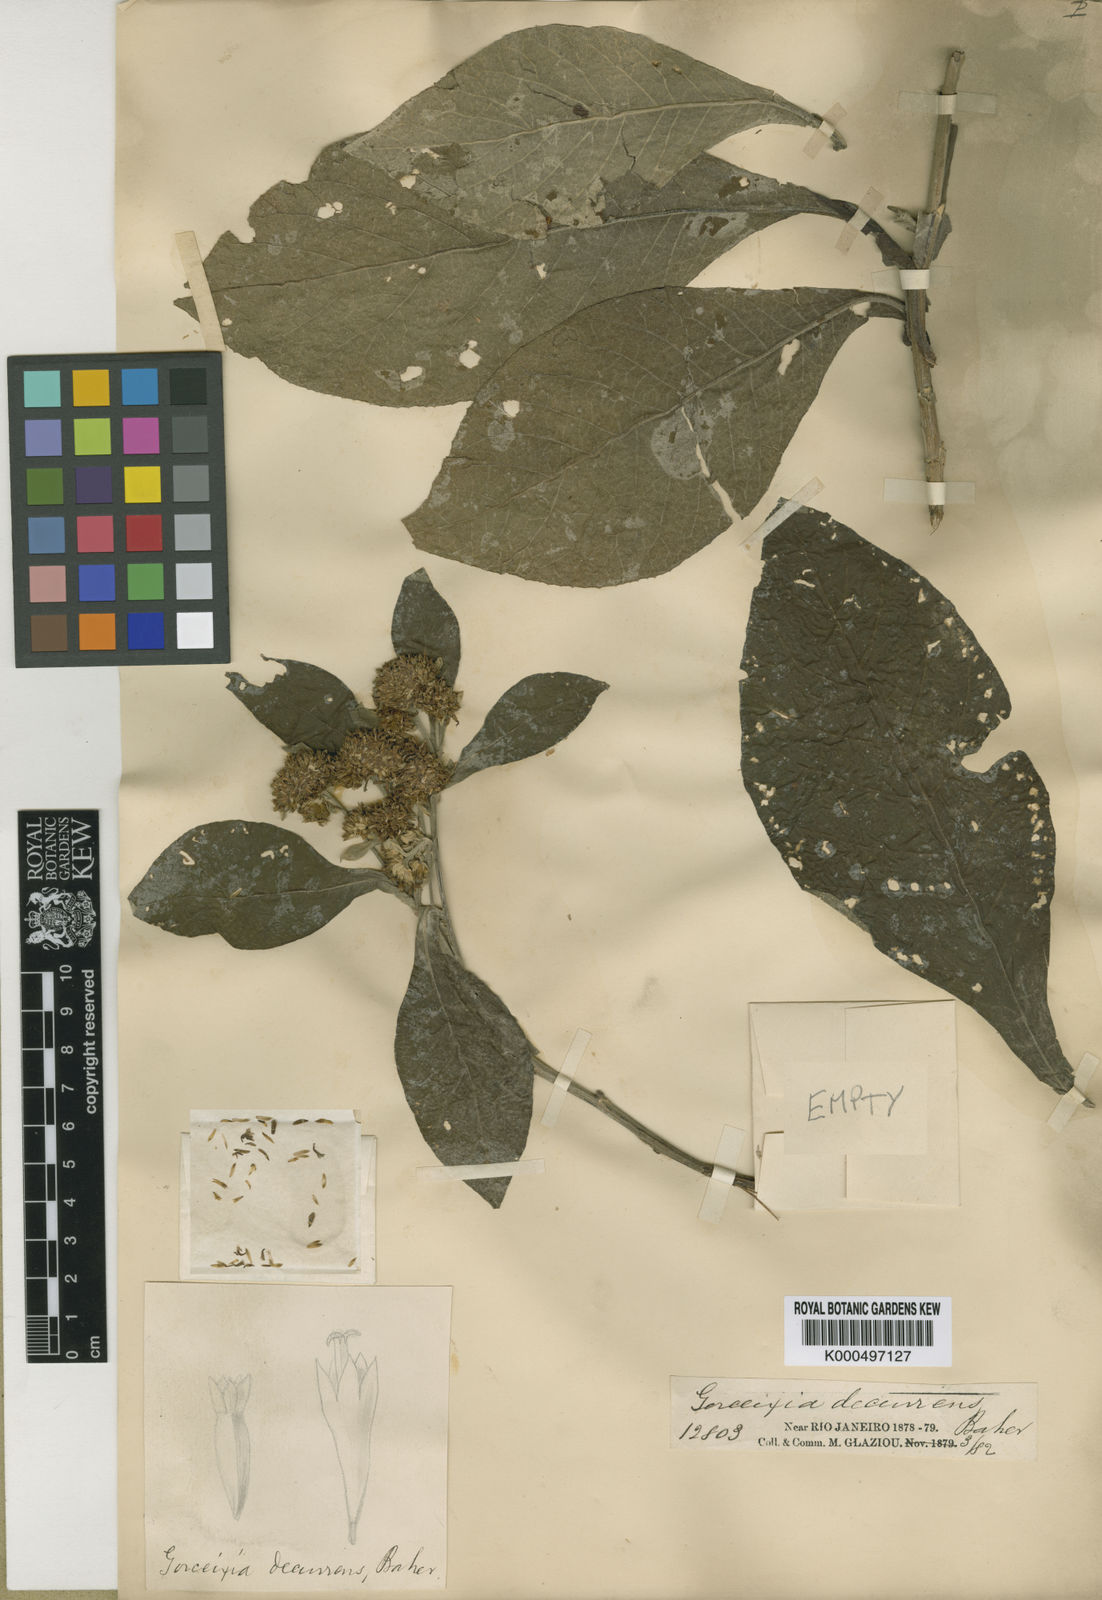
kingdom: Plantae
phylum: Tracheophyta
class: Magnoliopsida
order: Asterales
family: Asteraceae
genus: Gorceixia
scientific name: Gorceixia decurrens
